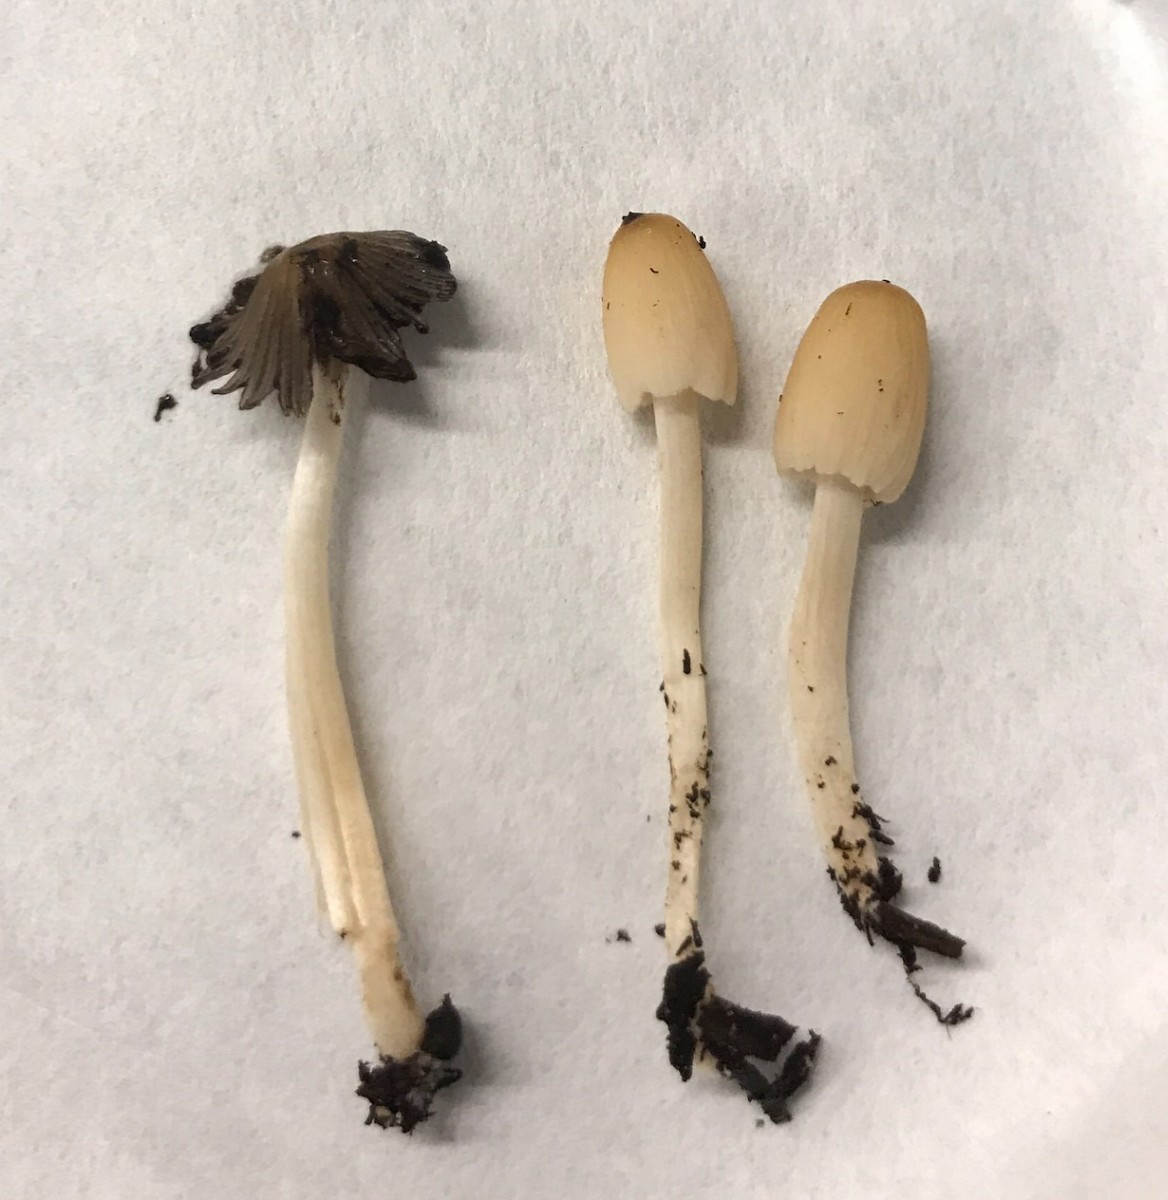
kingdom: Fungi
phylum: Basidiomycota
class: Agaricomycetes
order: Agaricales
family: Psathyrellaceae
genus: Tulosesus
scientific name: Tulosesus
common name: blækhat
